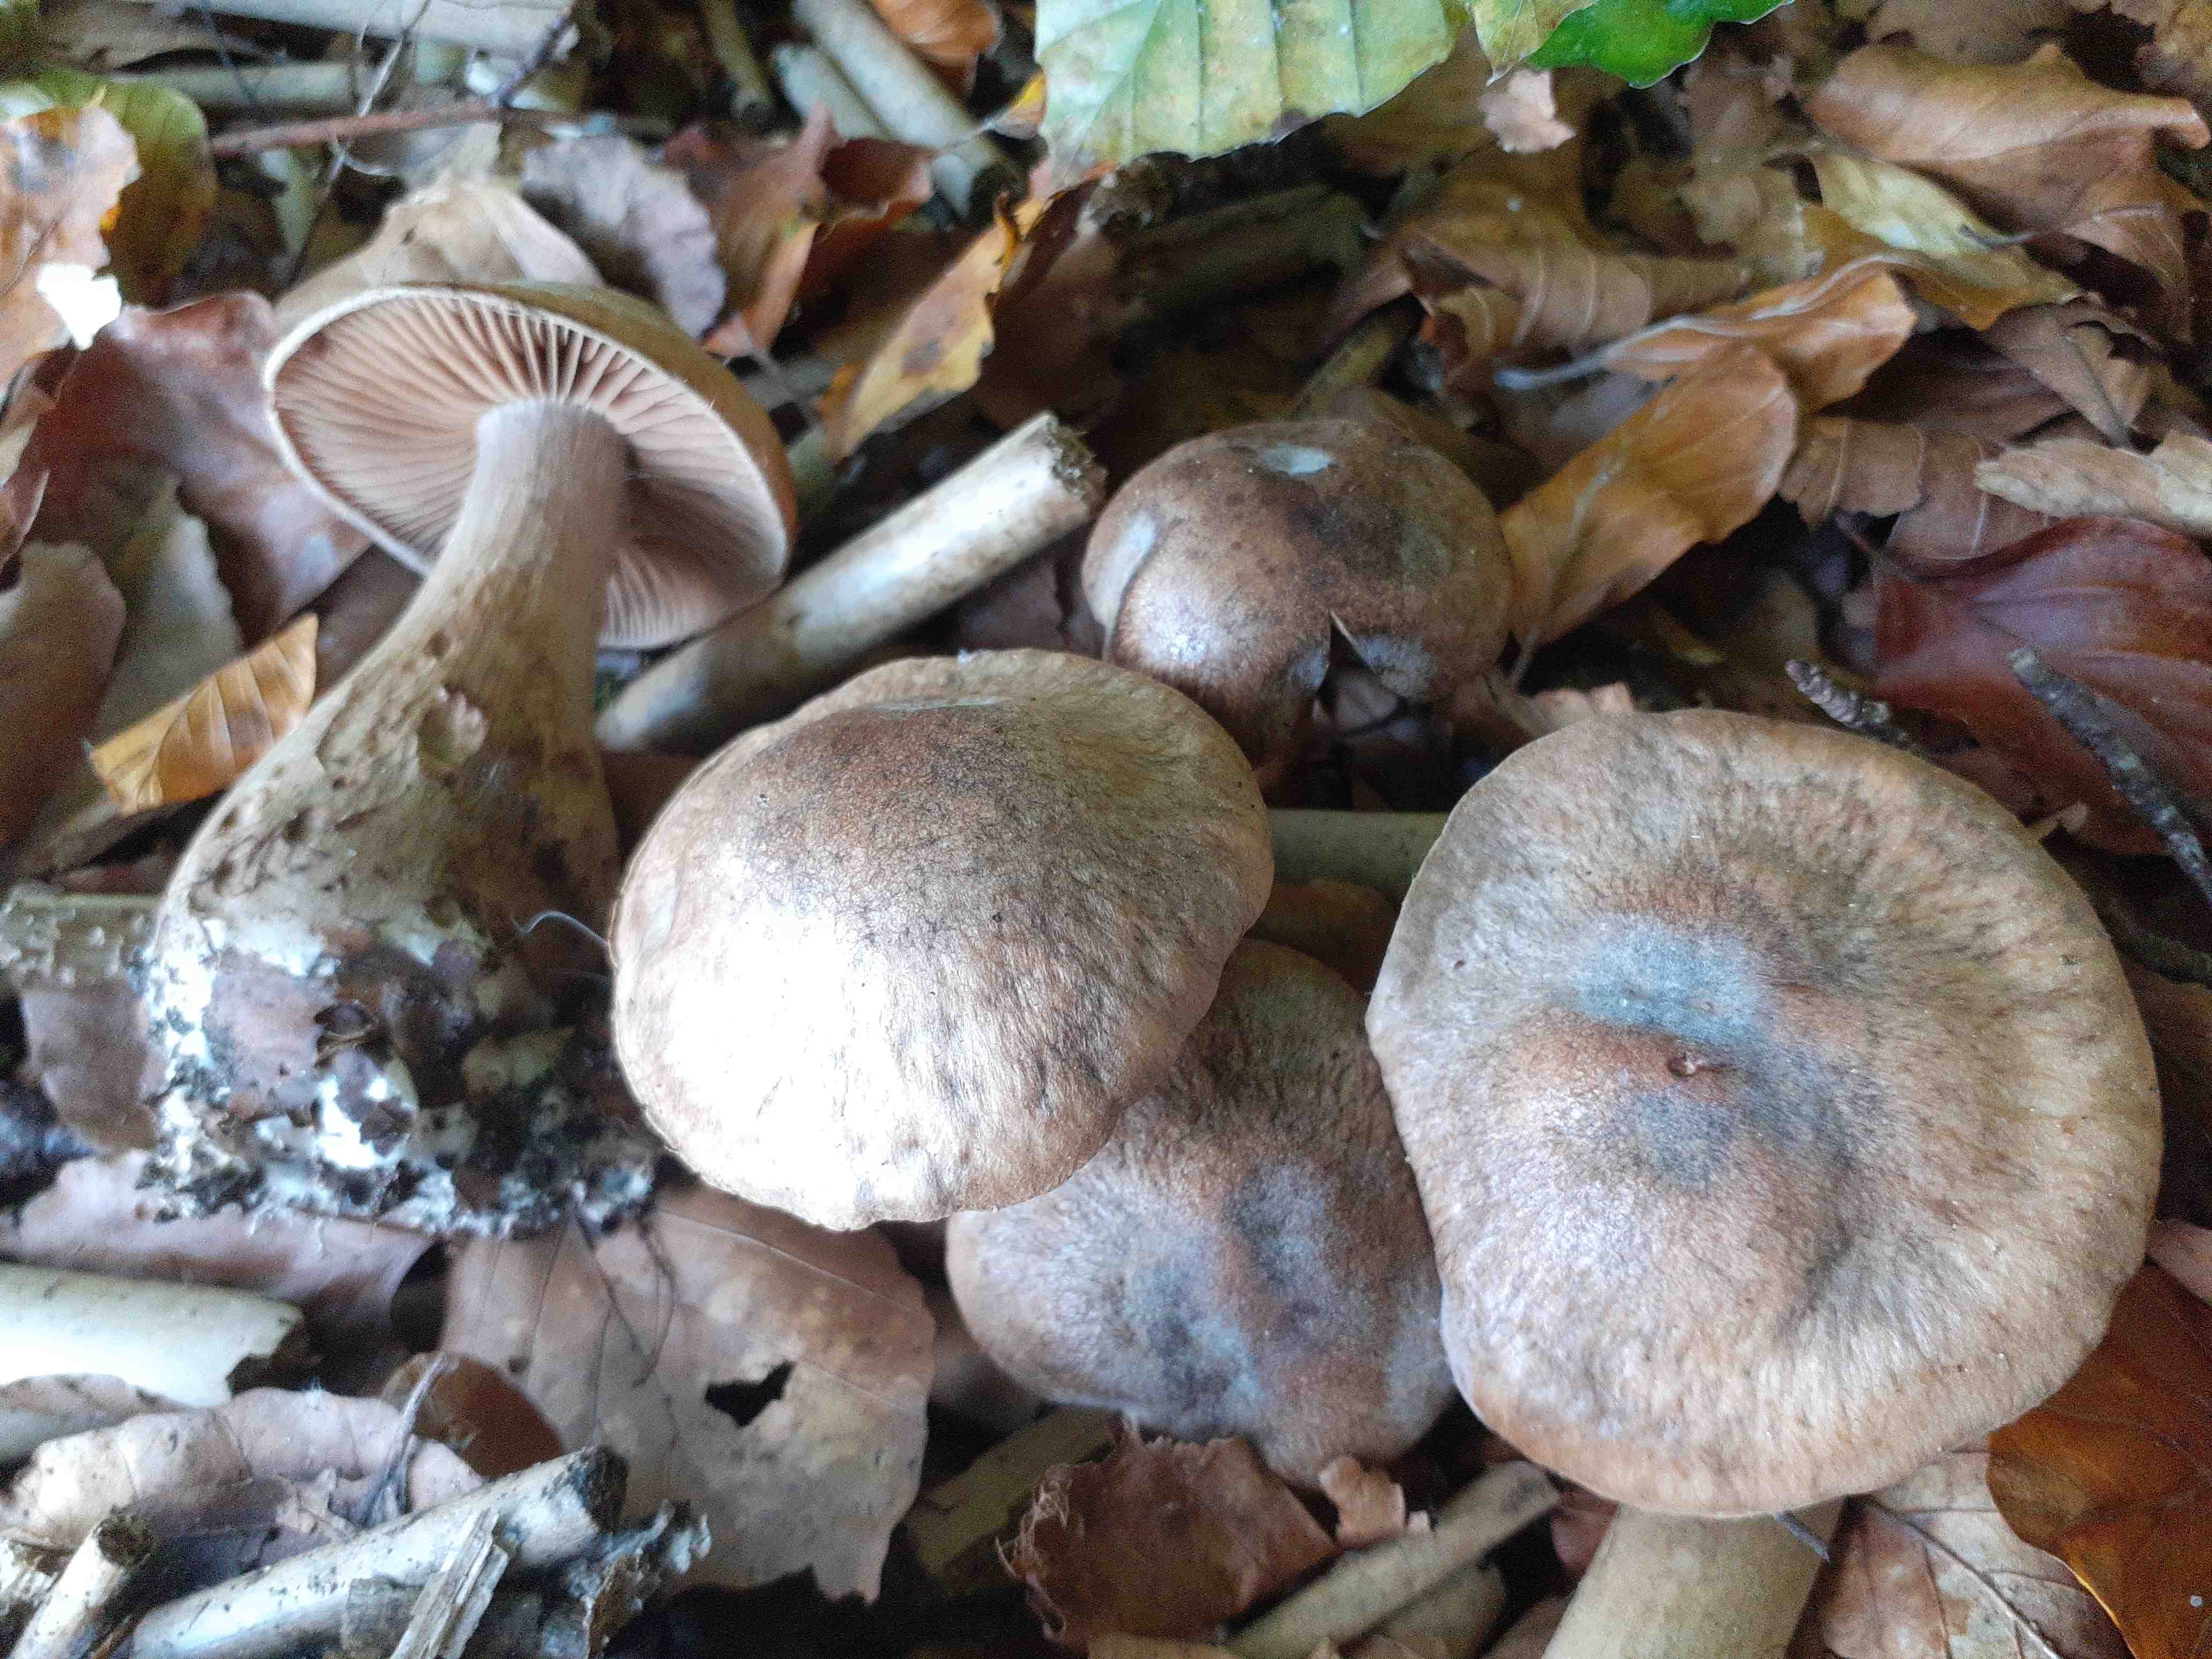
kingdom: Fungi
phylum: Basidiomycota
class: Agaricomycetes
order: Agaricales
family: Cortinariaceae
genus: Cortinarius
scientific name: Cortinarius
